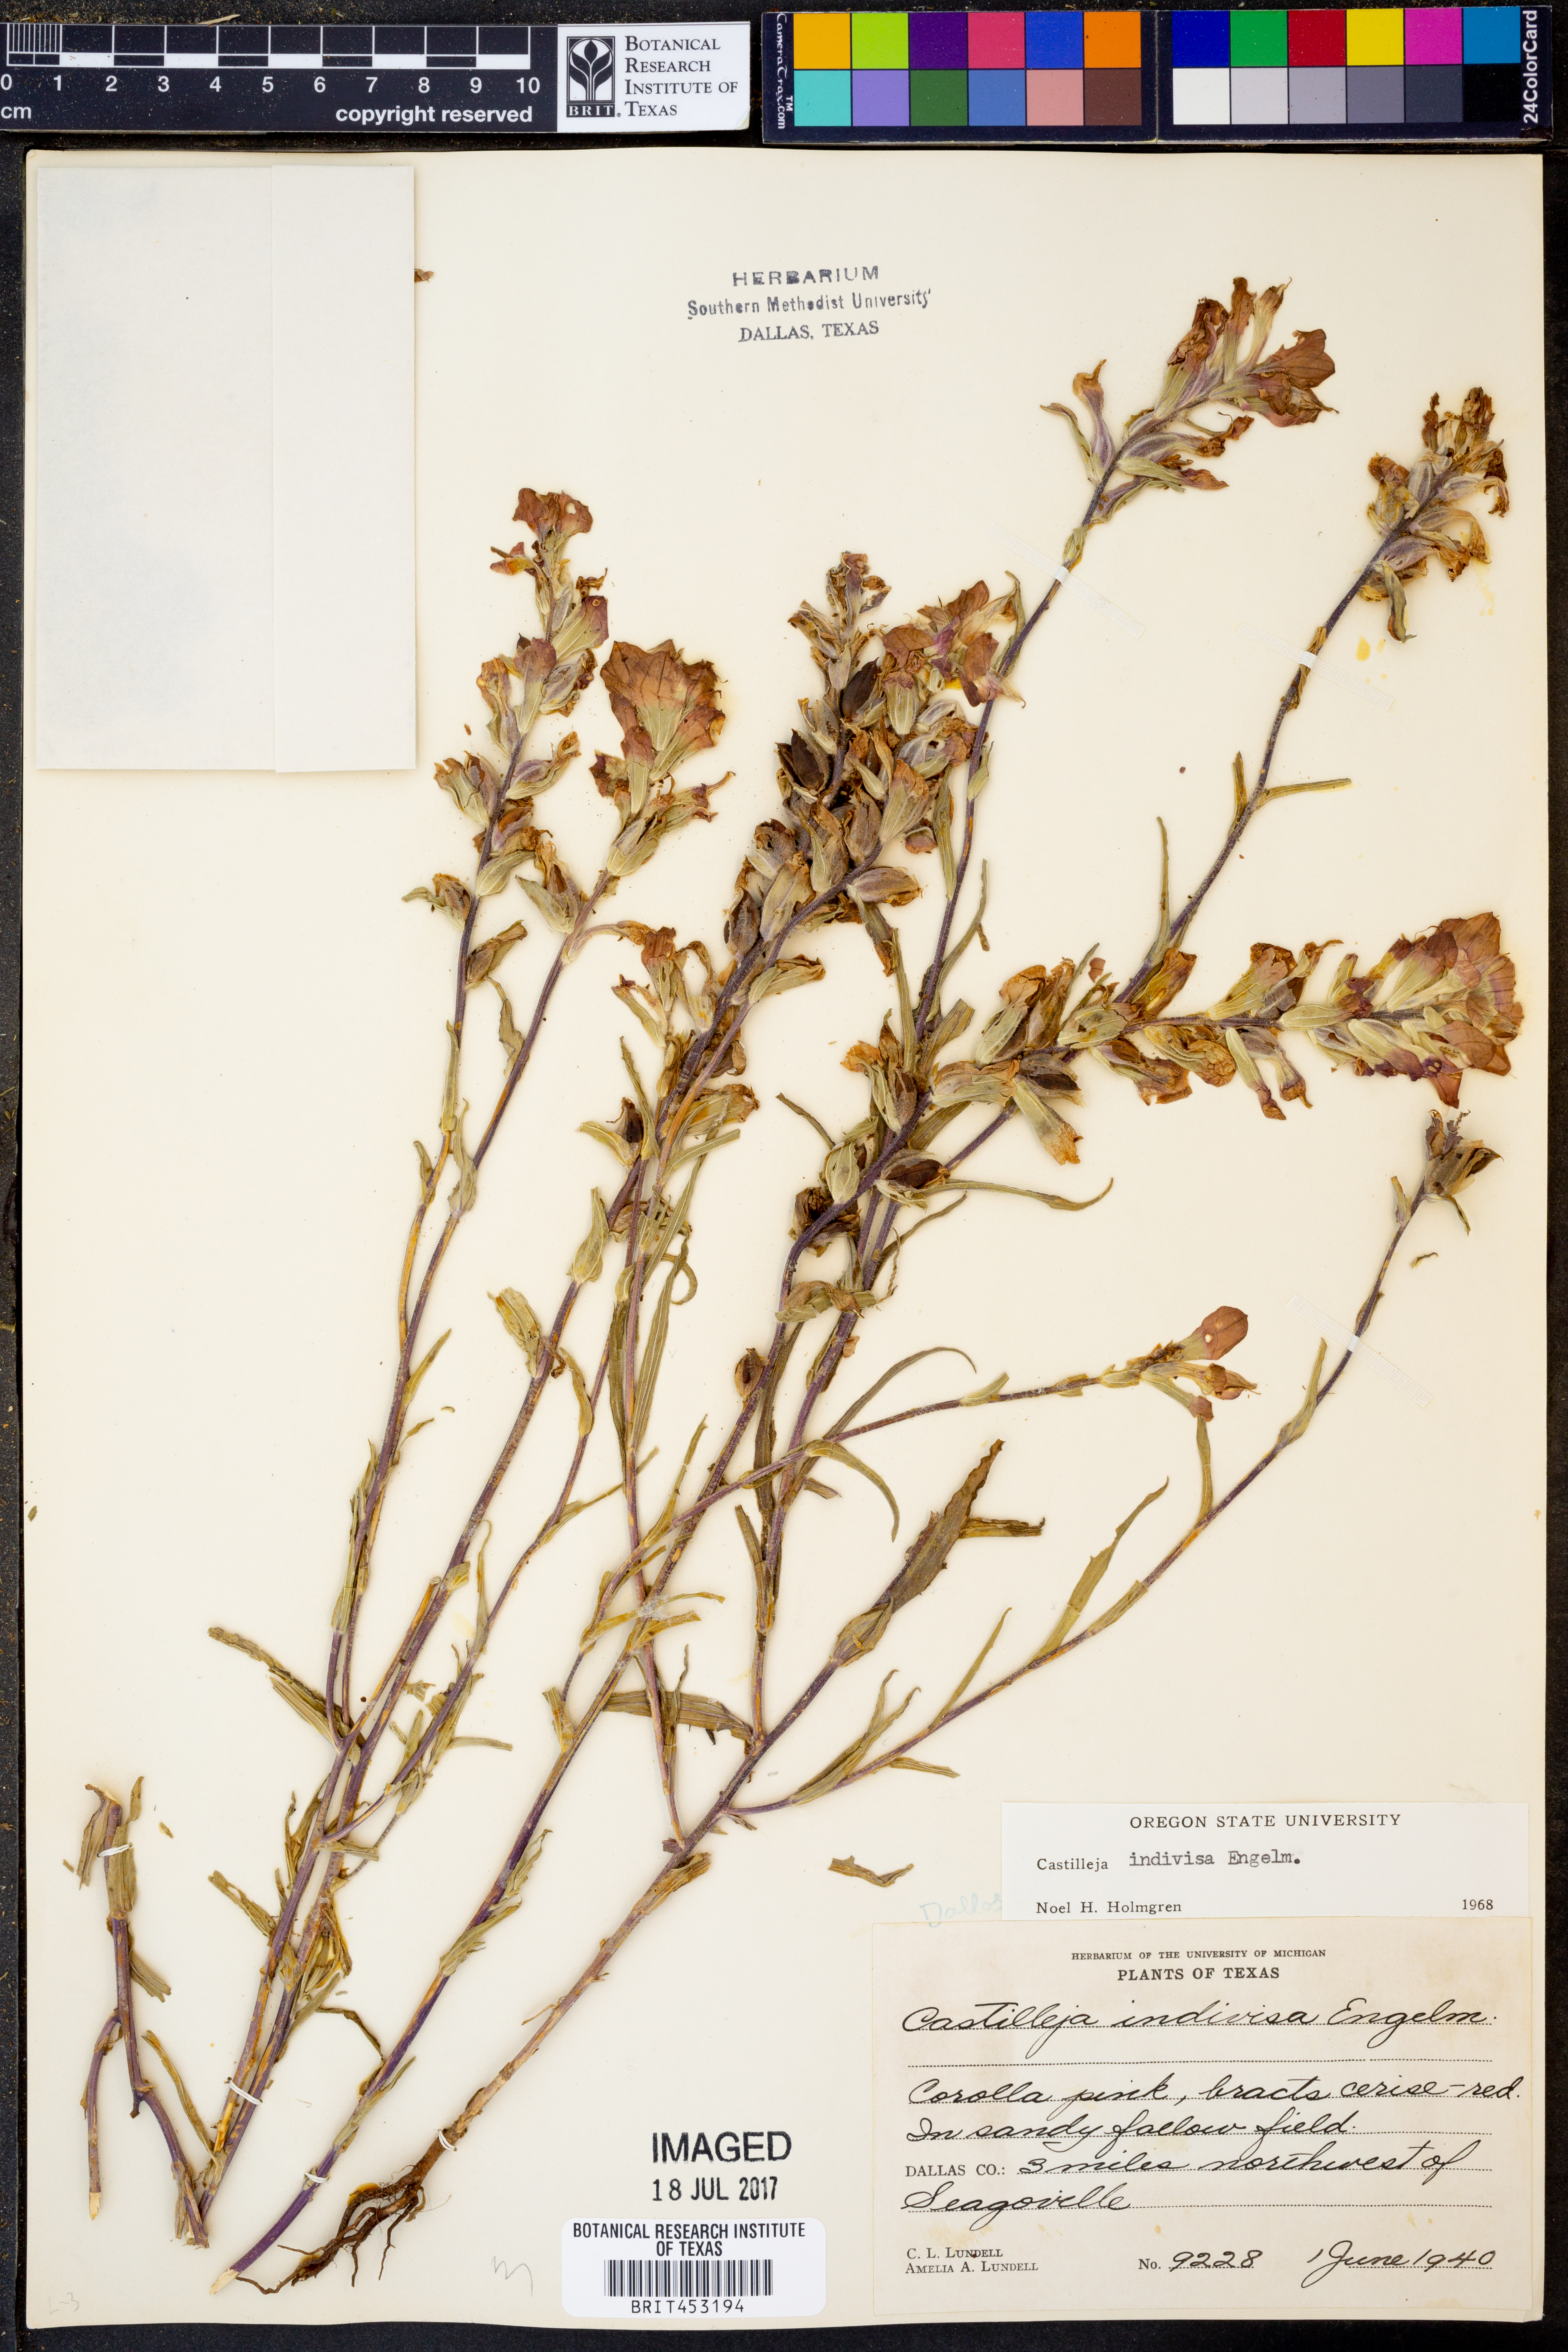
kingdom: Plantae
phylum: Tracheophyta
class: Magnoliopsida
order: Lamiales
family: Orobanchaceae
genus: Castilleja
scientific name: Castilleja indivisa
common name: Texas paintbrush
